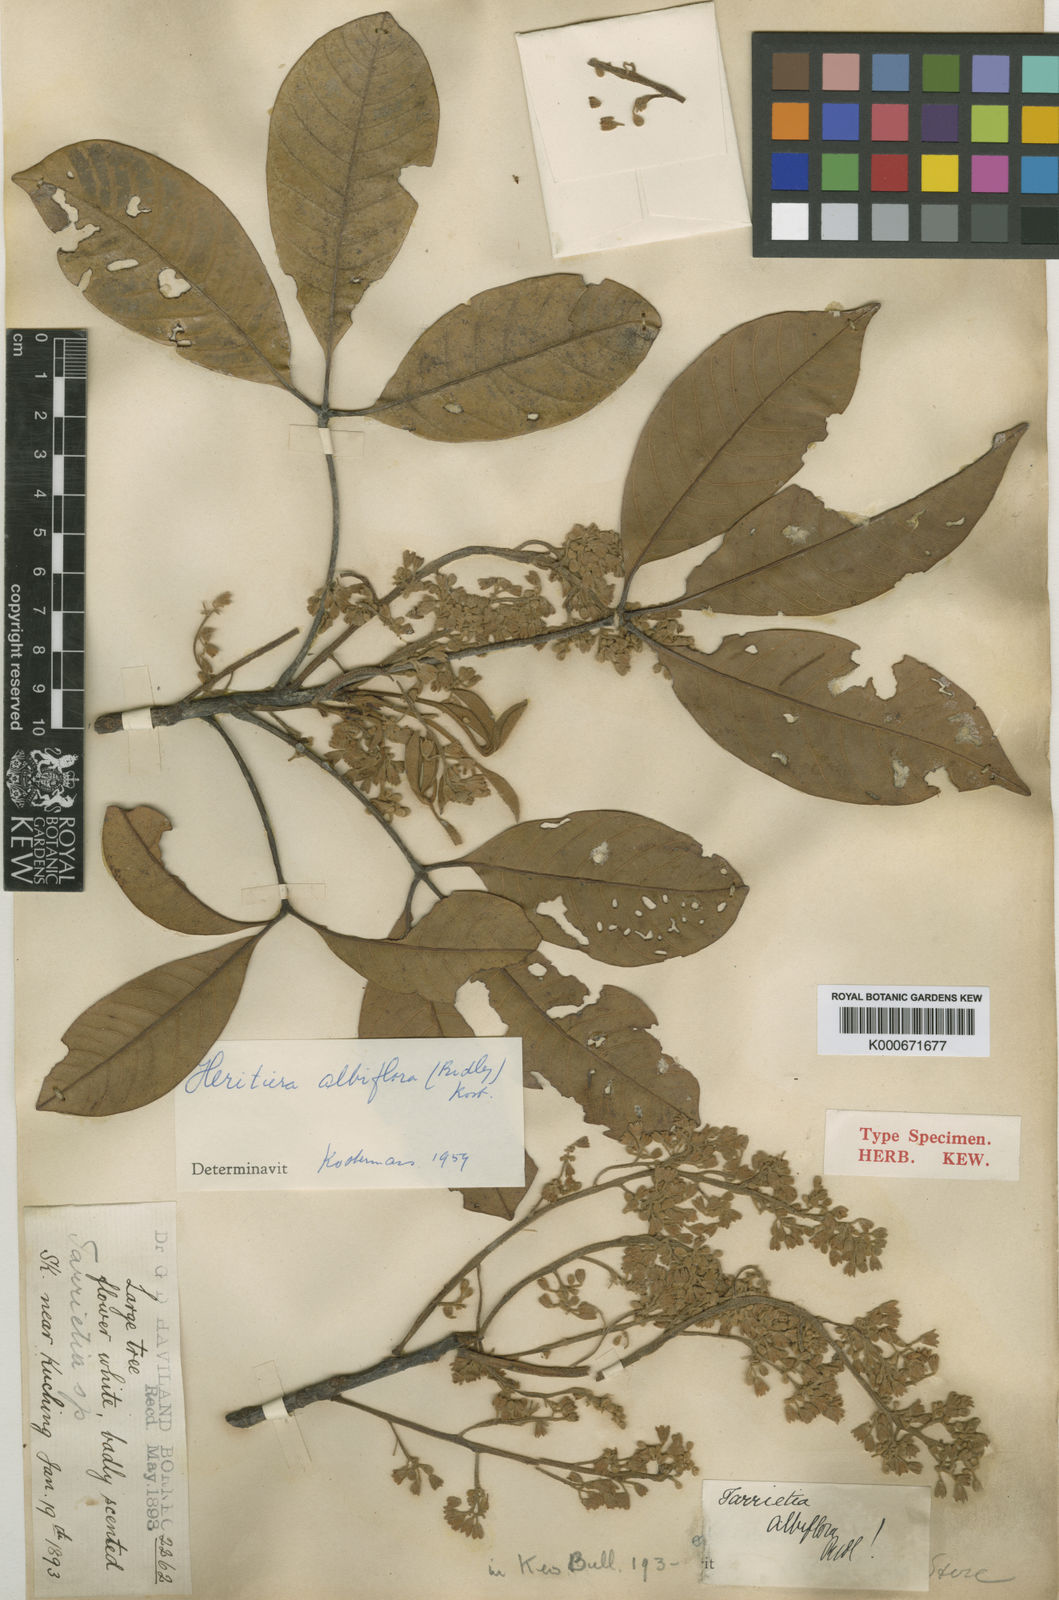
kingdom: Plantae
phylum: Tracheophyta
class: Magnoliopsida
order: Malvales
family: Malvaceae
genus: Heritiera
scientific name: Heritiera albiflora
